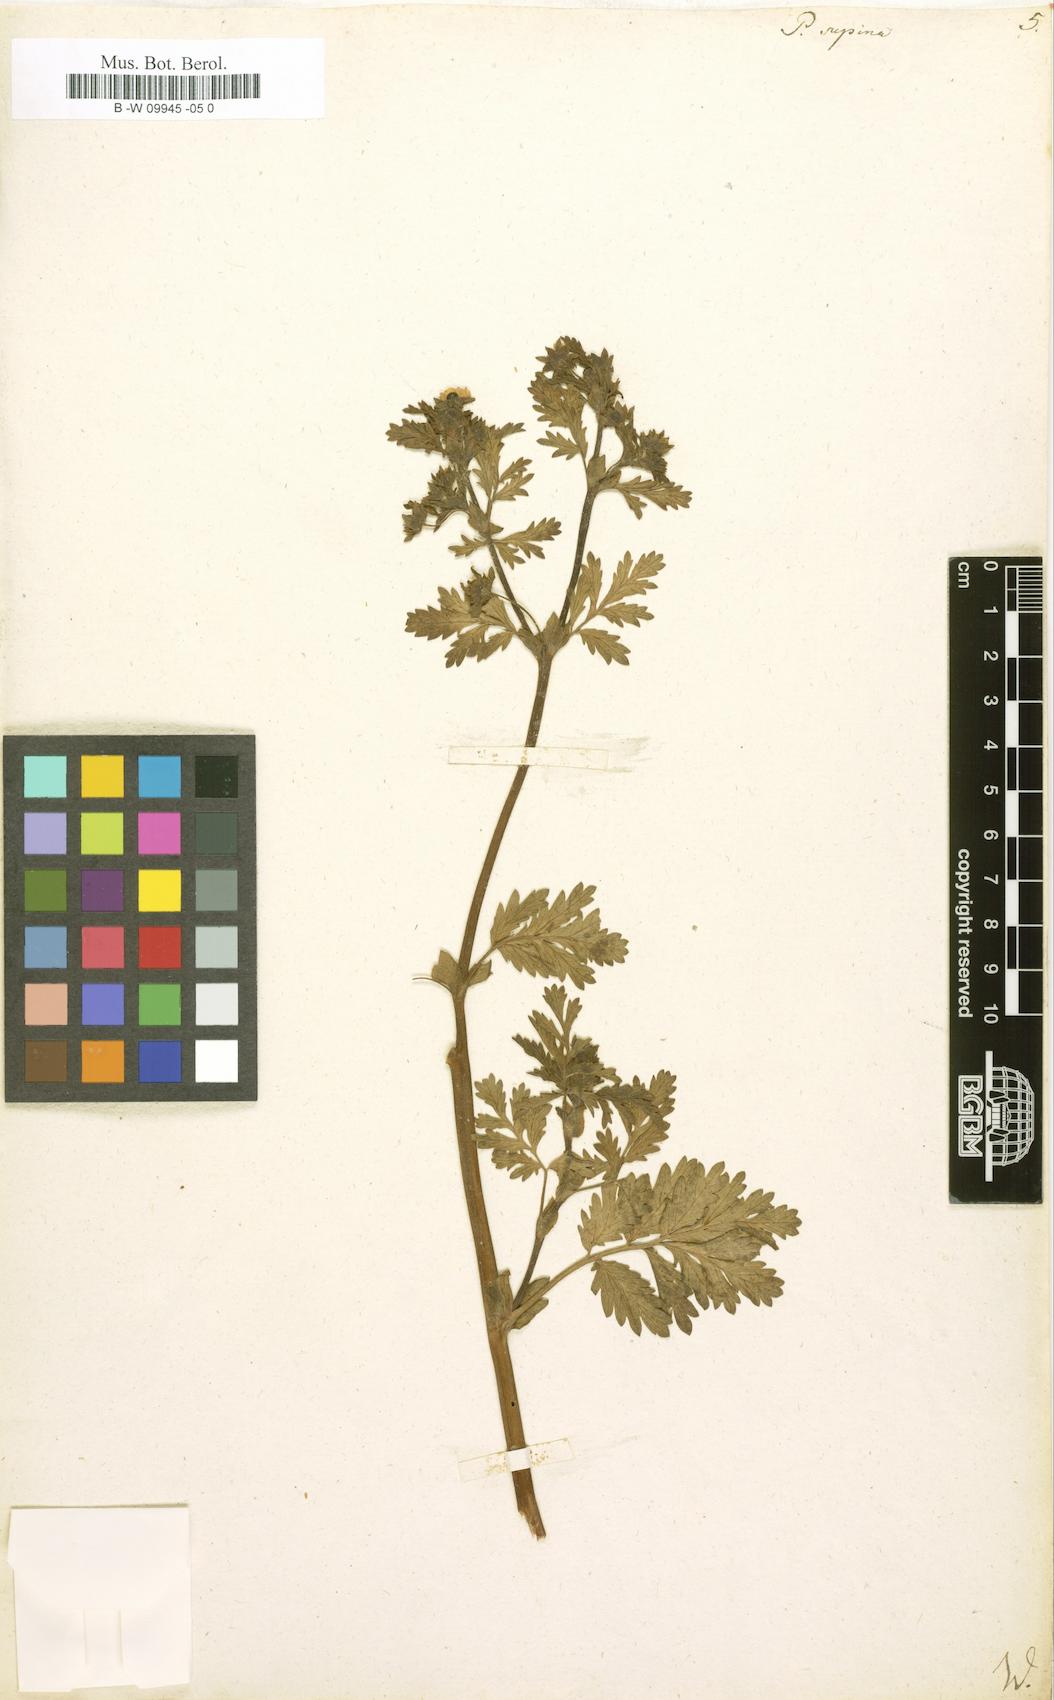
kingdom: Plantae
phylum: Tracheophyta
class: Magnoliopsida
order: Rosales
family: Rosaceae
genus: Potentilla
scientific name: Potentilla supina
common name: Prostrate cinquefoil
